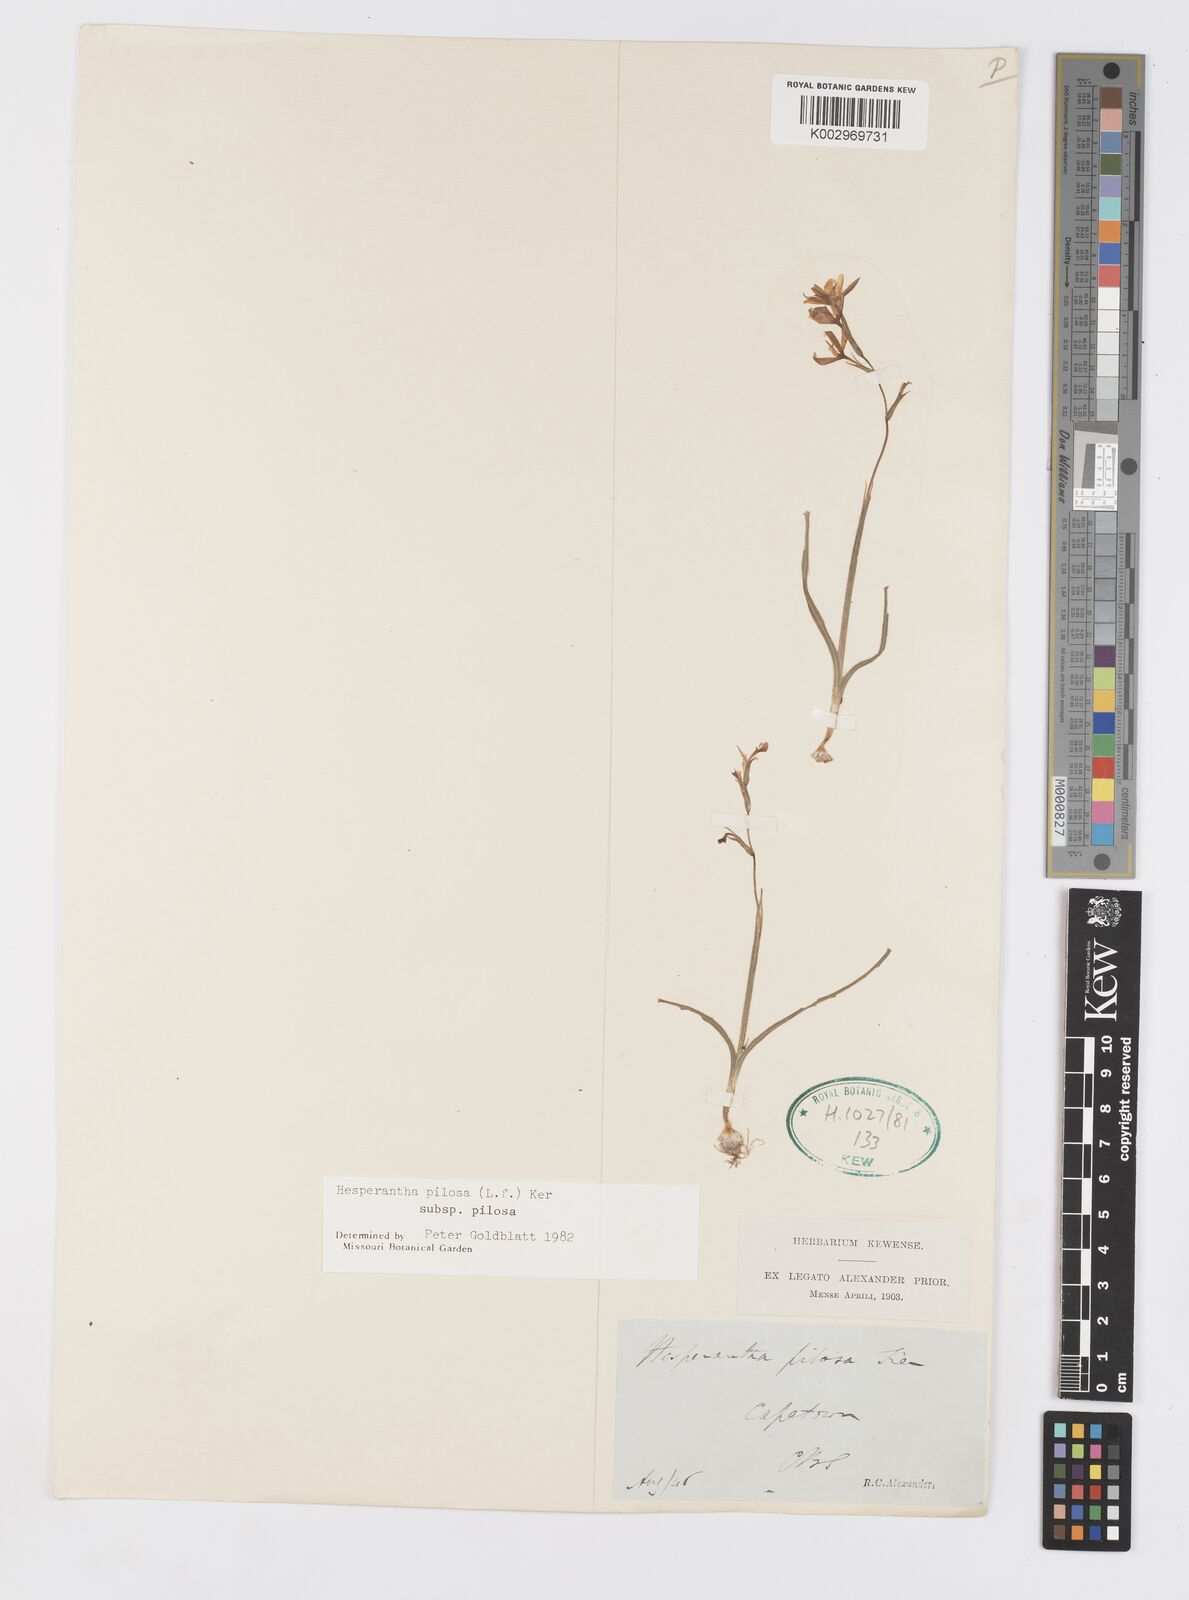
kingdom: Plantae
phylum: Tracheophyta
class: Liliopsida
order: Asparagales
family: Iridaceae
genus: Hesperantha
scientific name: Hesperantha pilosa
